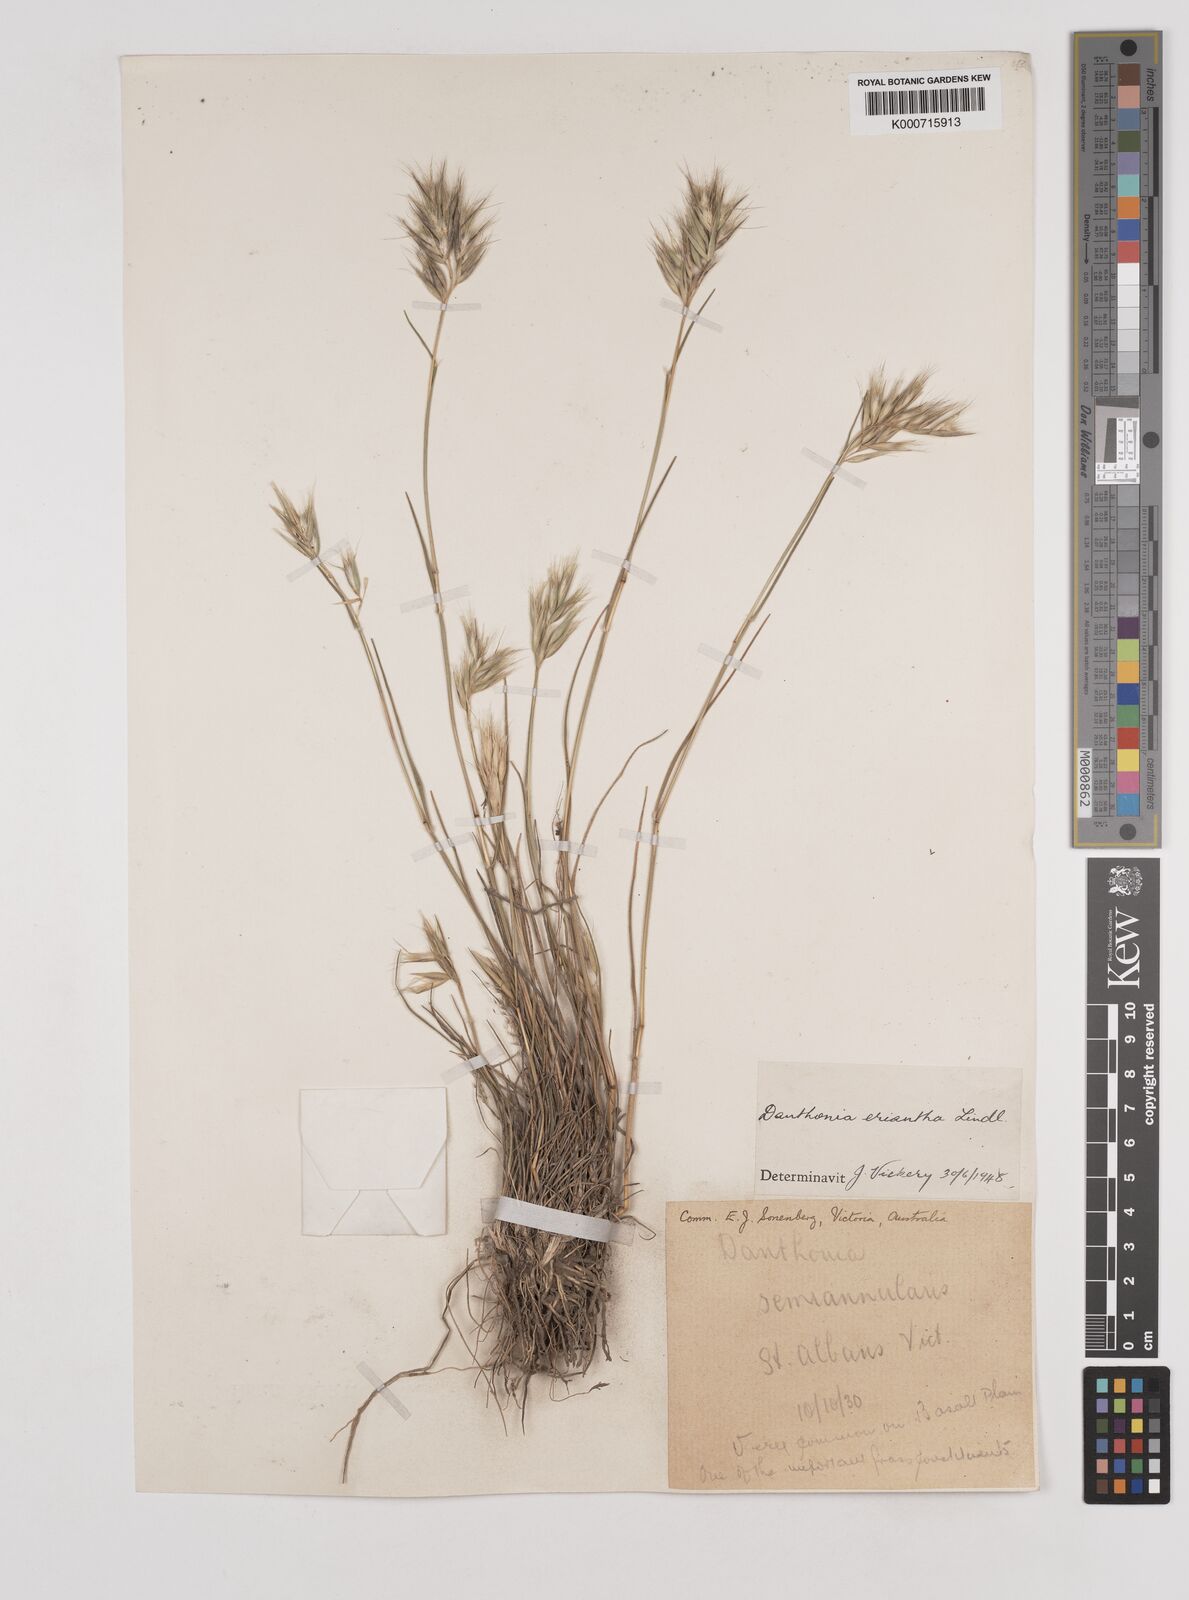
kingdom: Plantae
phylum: Tracheophyta
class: Liliopsida
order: Poales
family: Poaceae
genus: Rytidosperma
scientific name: Rytidosperma erianthum
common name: Hill wallaby grass
